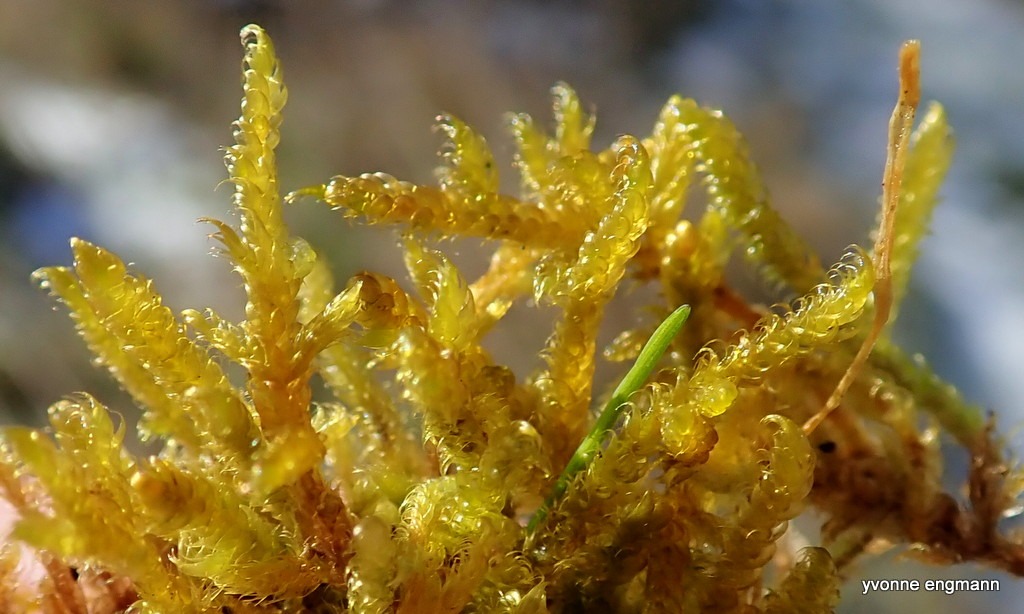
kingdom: Plantae
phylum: Bryophyta
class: Bryopsida
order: Hypnales
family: Hypnaceae
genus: Hypnum
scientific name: Hypnum cupressiforme
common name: Almindelig cypresmos
